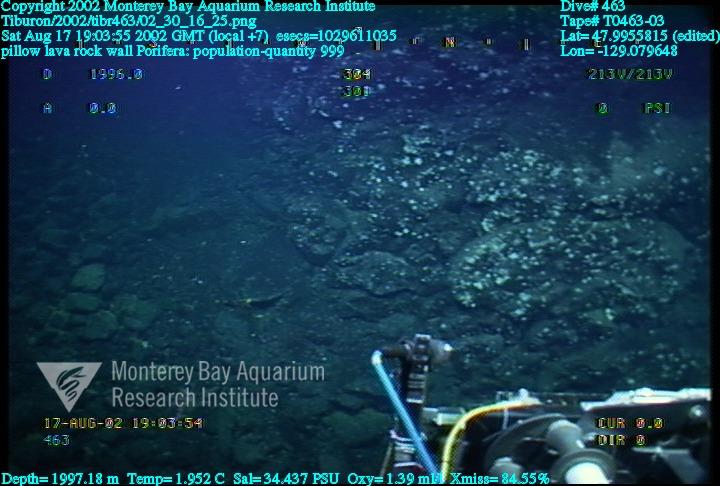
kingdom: Animalia
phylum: Porifera
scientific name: Porifera
